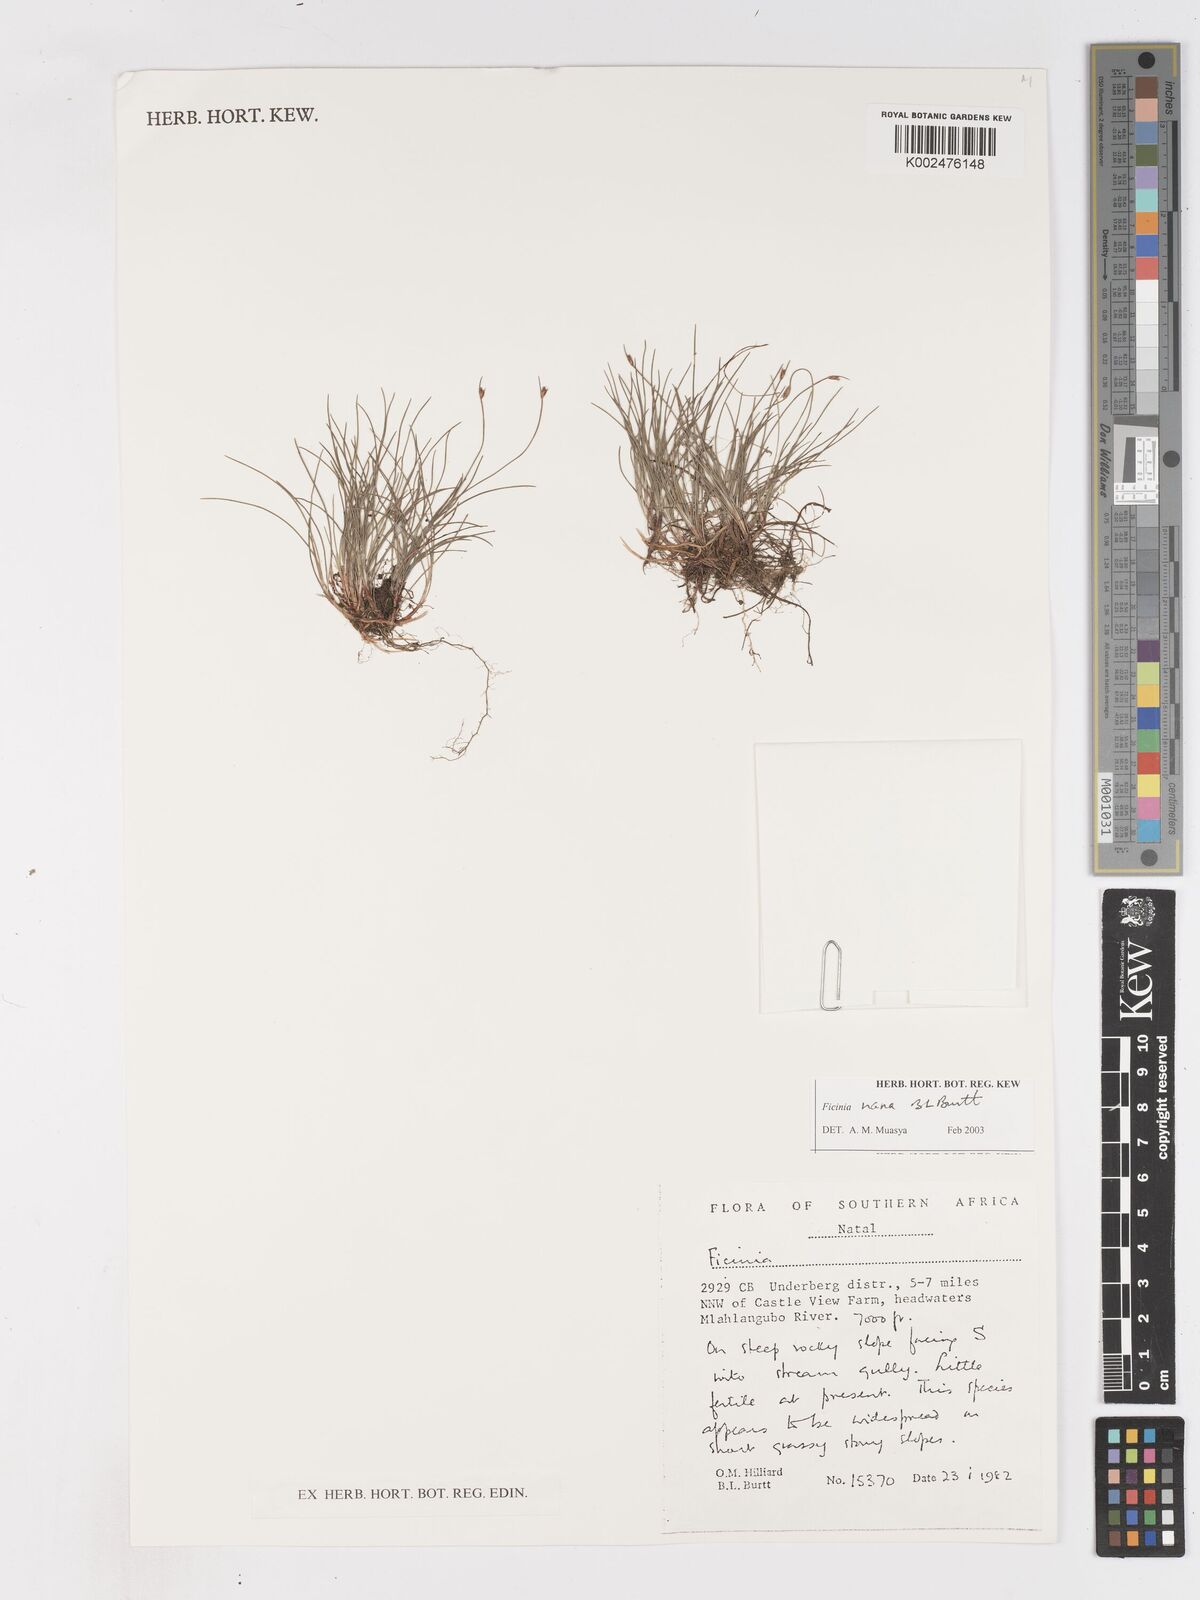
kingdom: Plantae
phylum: Tracheophyta
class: Liliopsida
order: Poales
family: Cyperaceae
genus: Ficinia
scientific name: Ficinia nana
